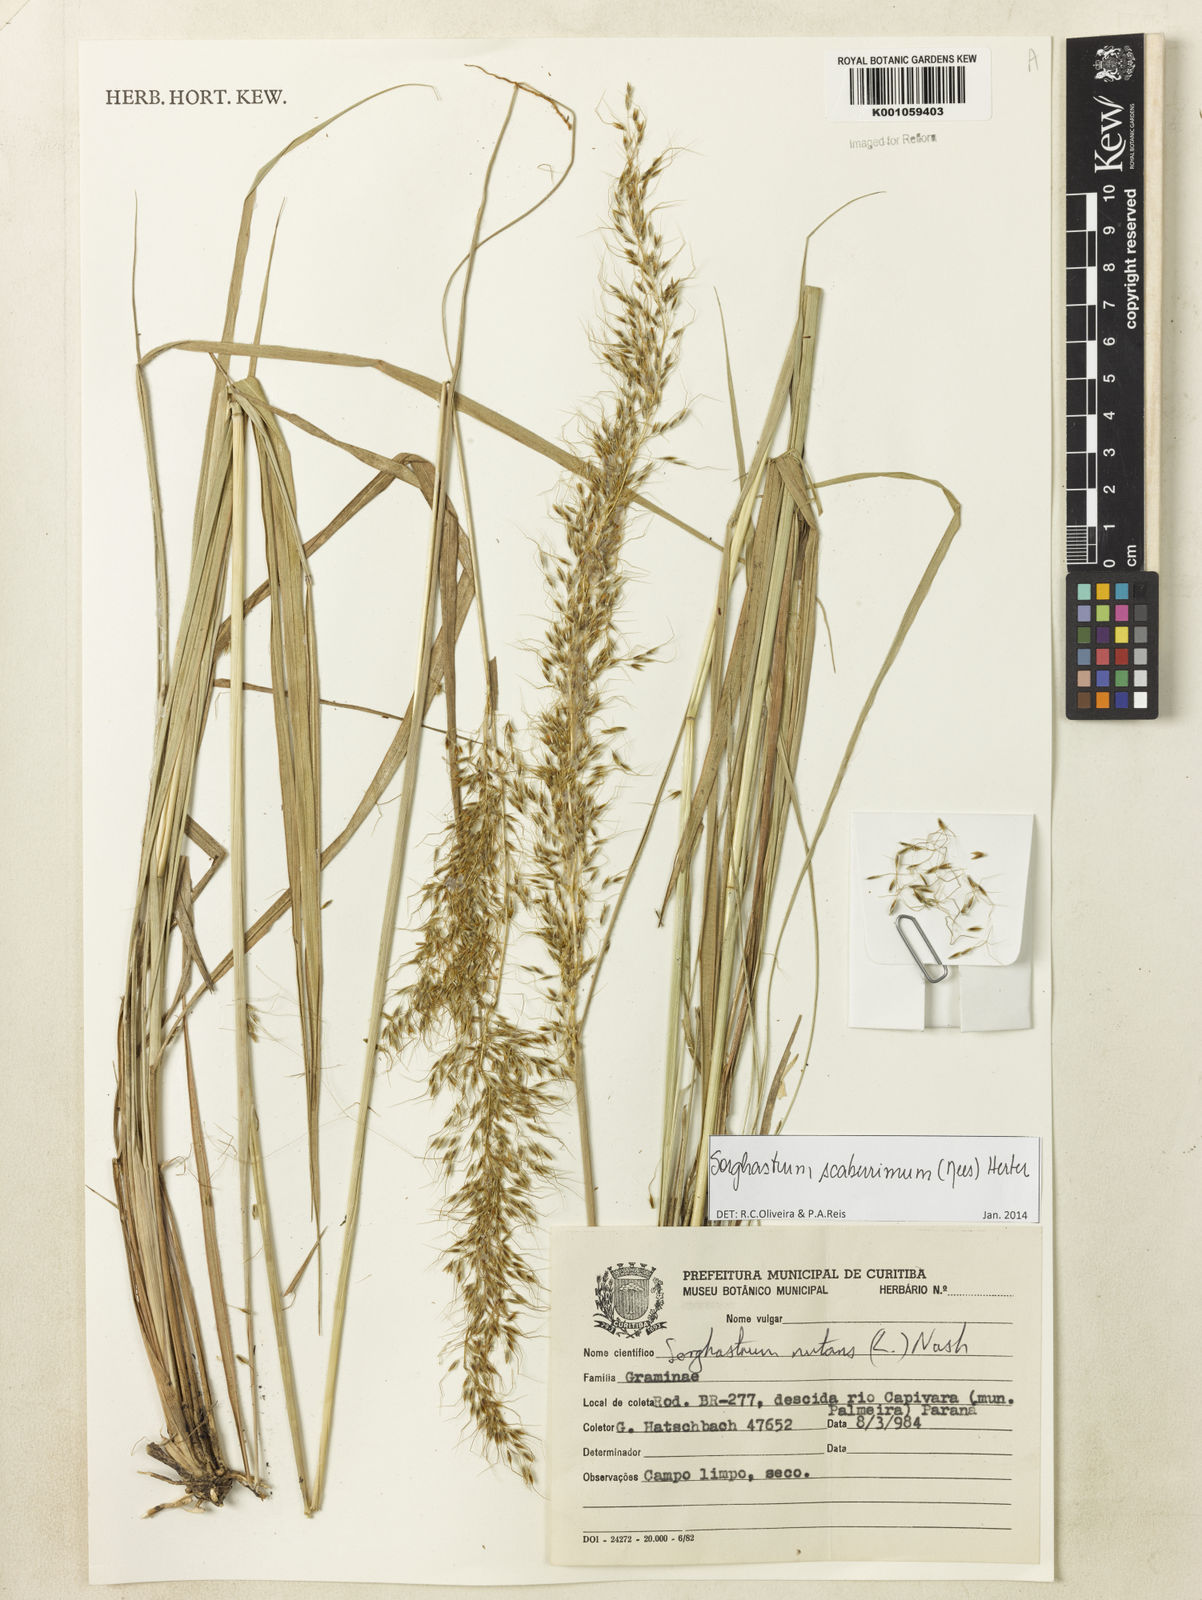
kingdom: Plantae
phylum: Tracheophyta
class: Liliopsida
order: Poales
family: Poaceae
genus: Sorghastrum
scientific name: Sorghastrum scaberrimum
